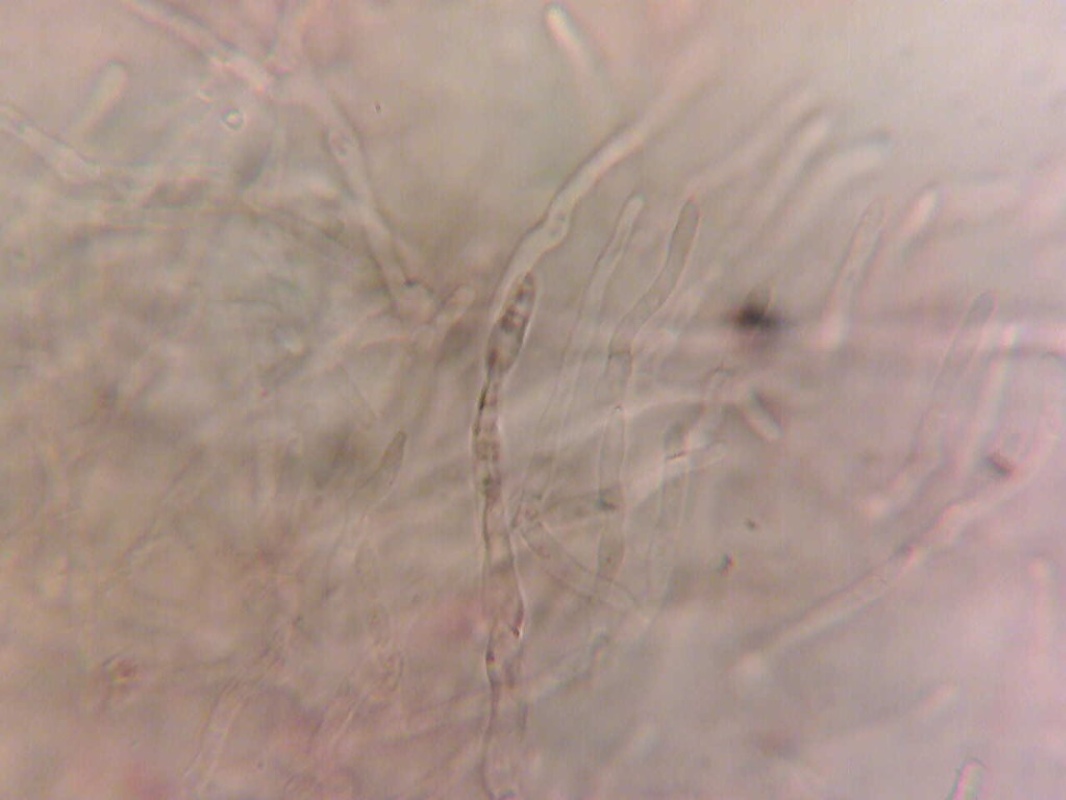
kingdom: Fungi
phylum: Basidiomycota
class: Agaricomycetes
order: Russulales
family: Russulaceae
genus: Russula
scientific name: Russula puellula
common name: gulnende skørhat
